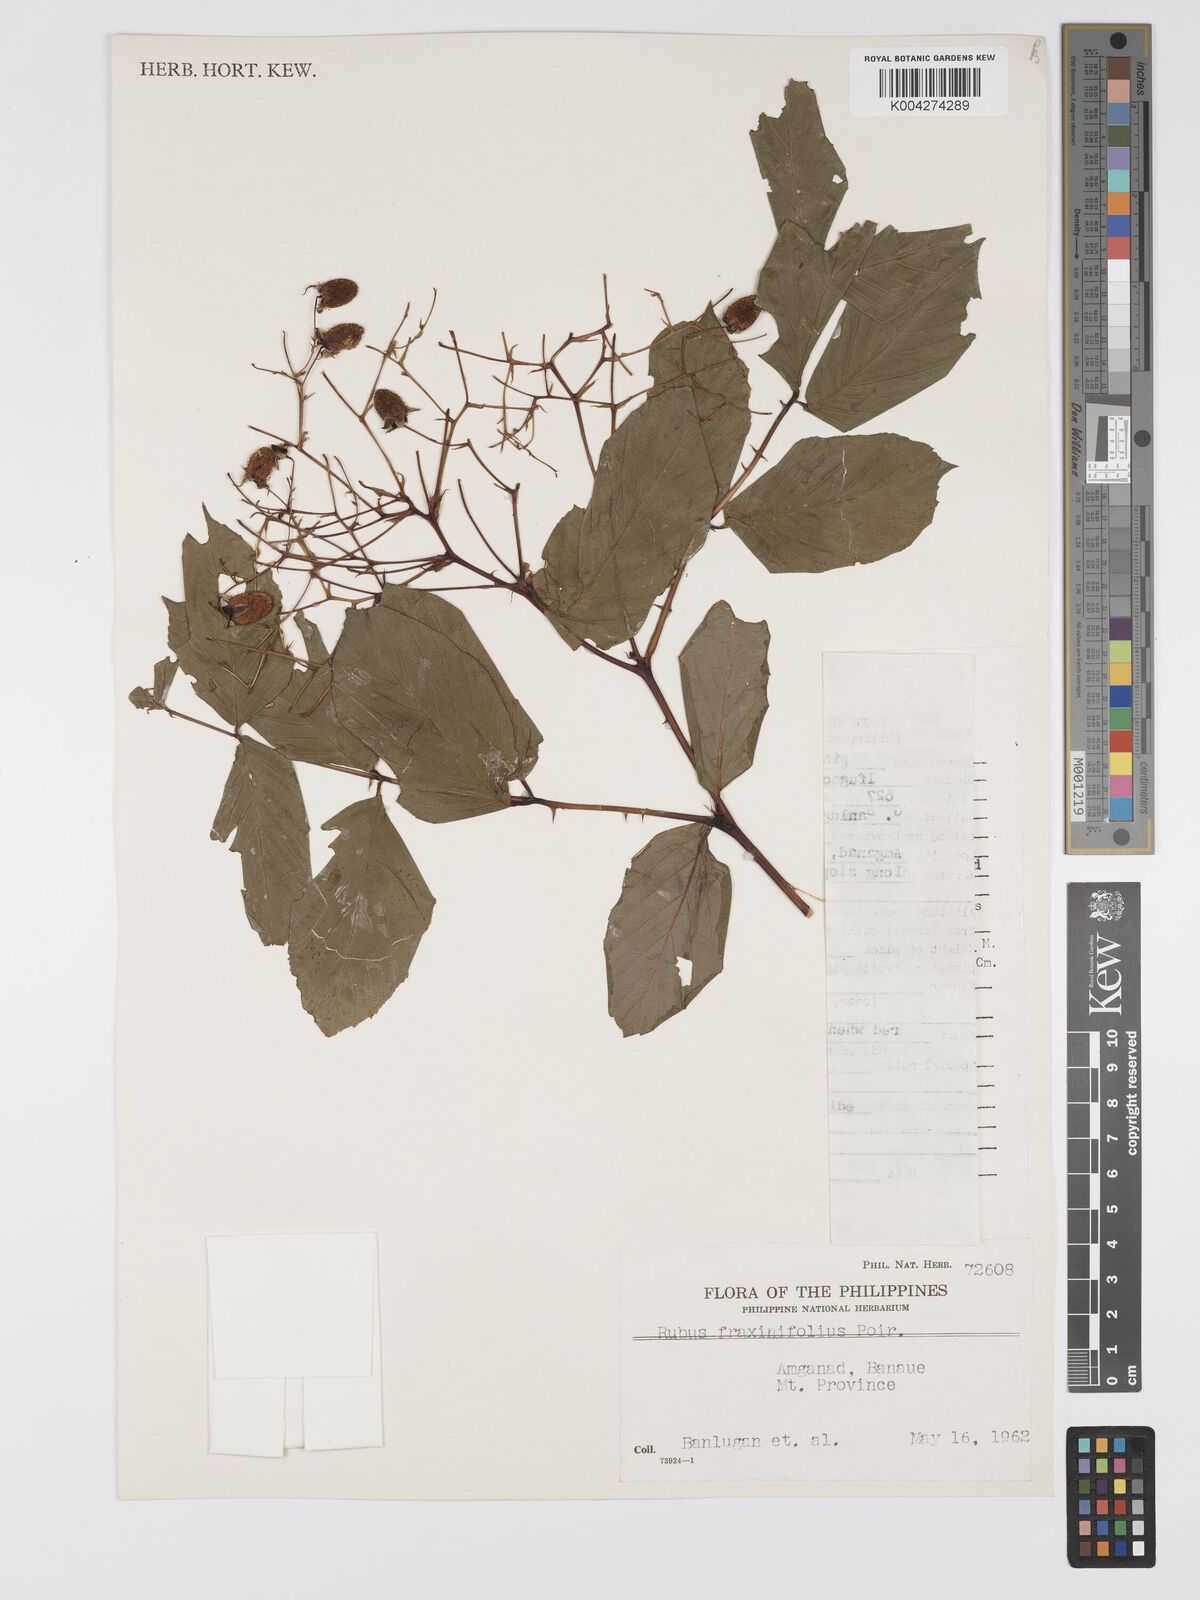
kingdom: Plantae
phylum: Tracheophyta
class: Magnoliopsida
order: Rosales
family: Rosaceae
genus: Rubus
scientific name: Rubus fraxinifolius
